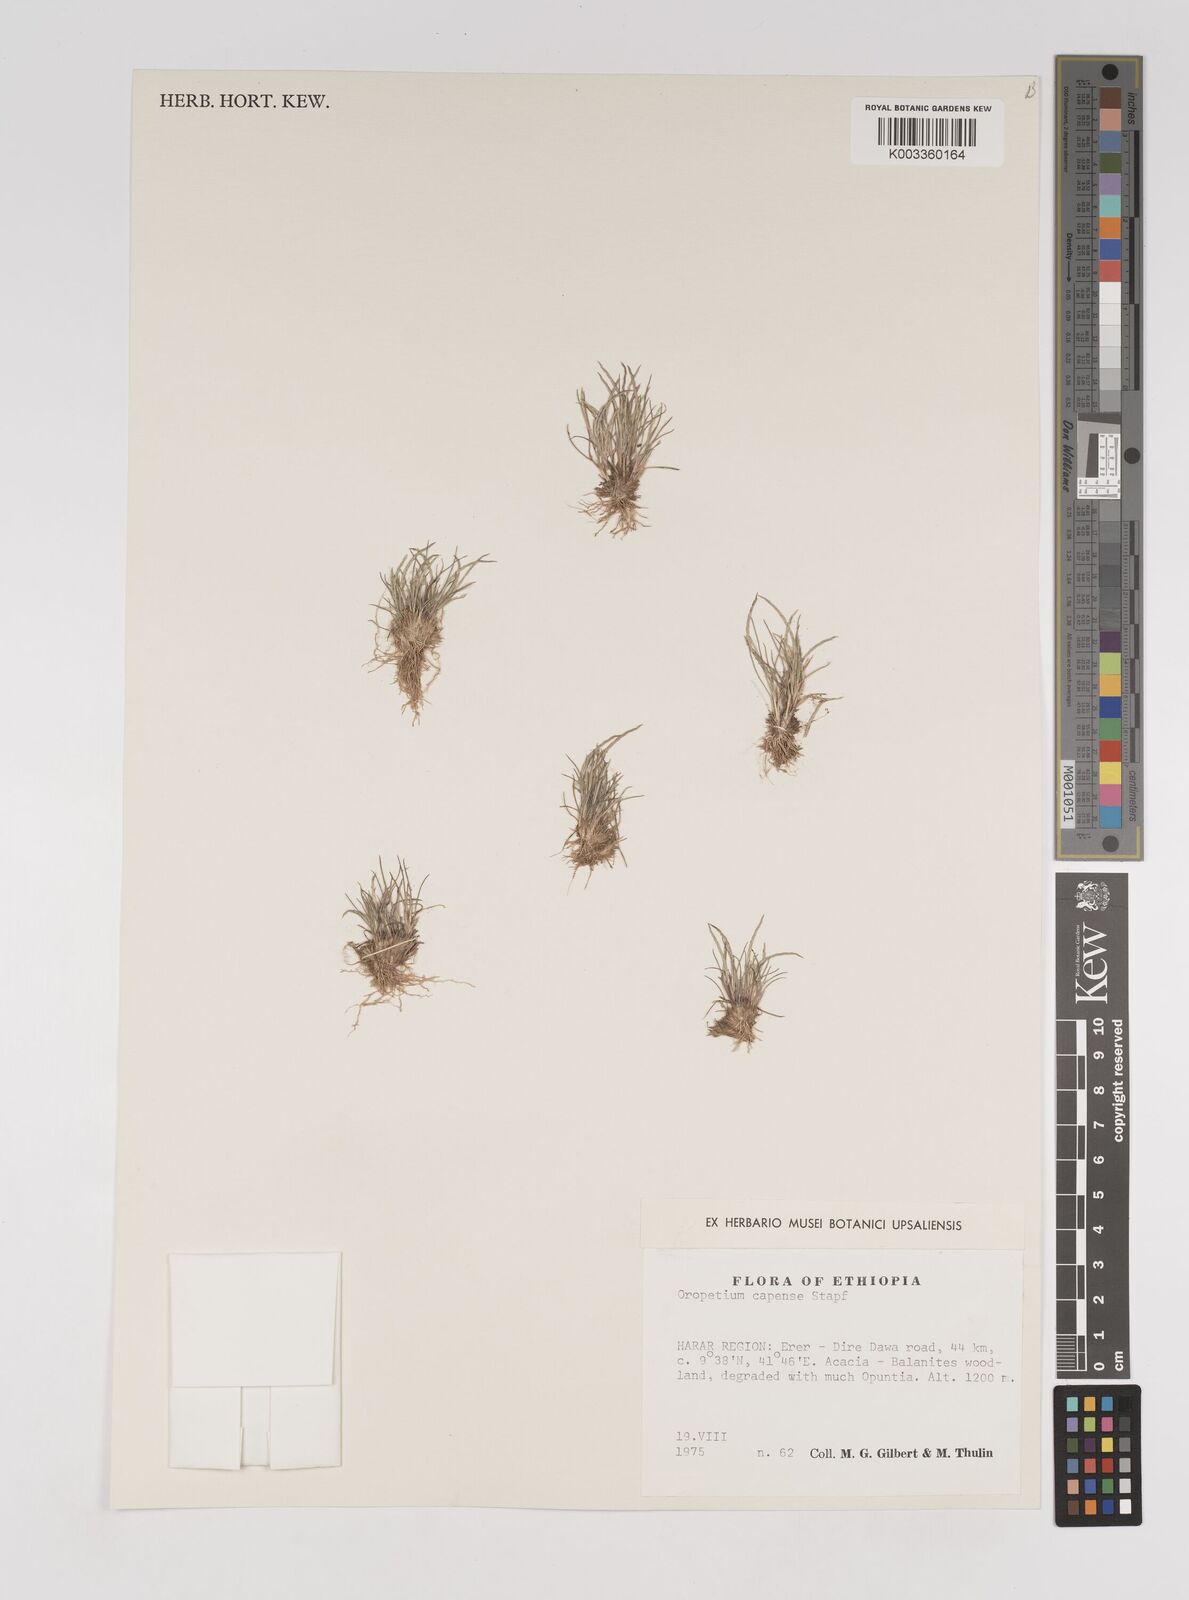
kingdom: Plantae
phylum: Tracheophyta
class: Liliopsida
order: Poales
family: Poaceae
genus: Oropetium
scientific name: Oropetium capense
